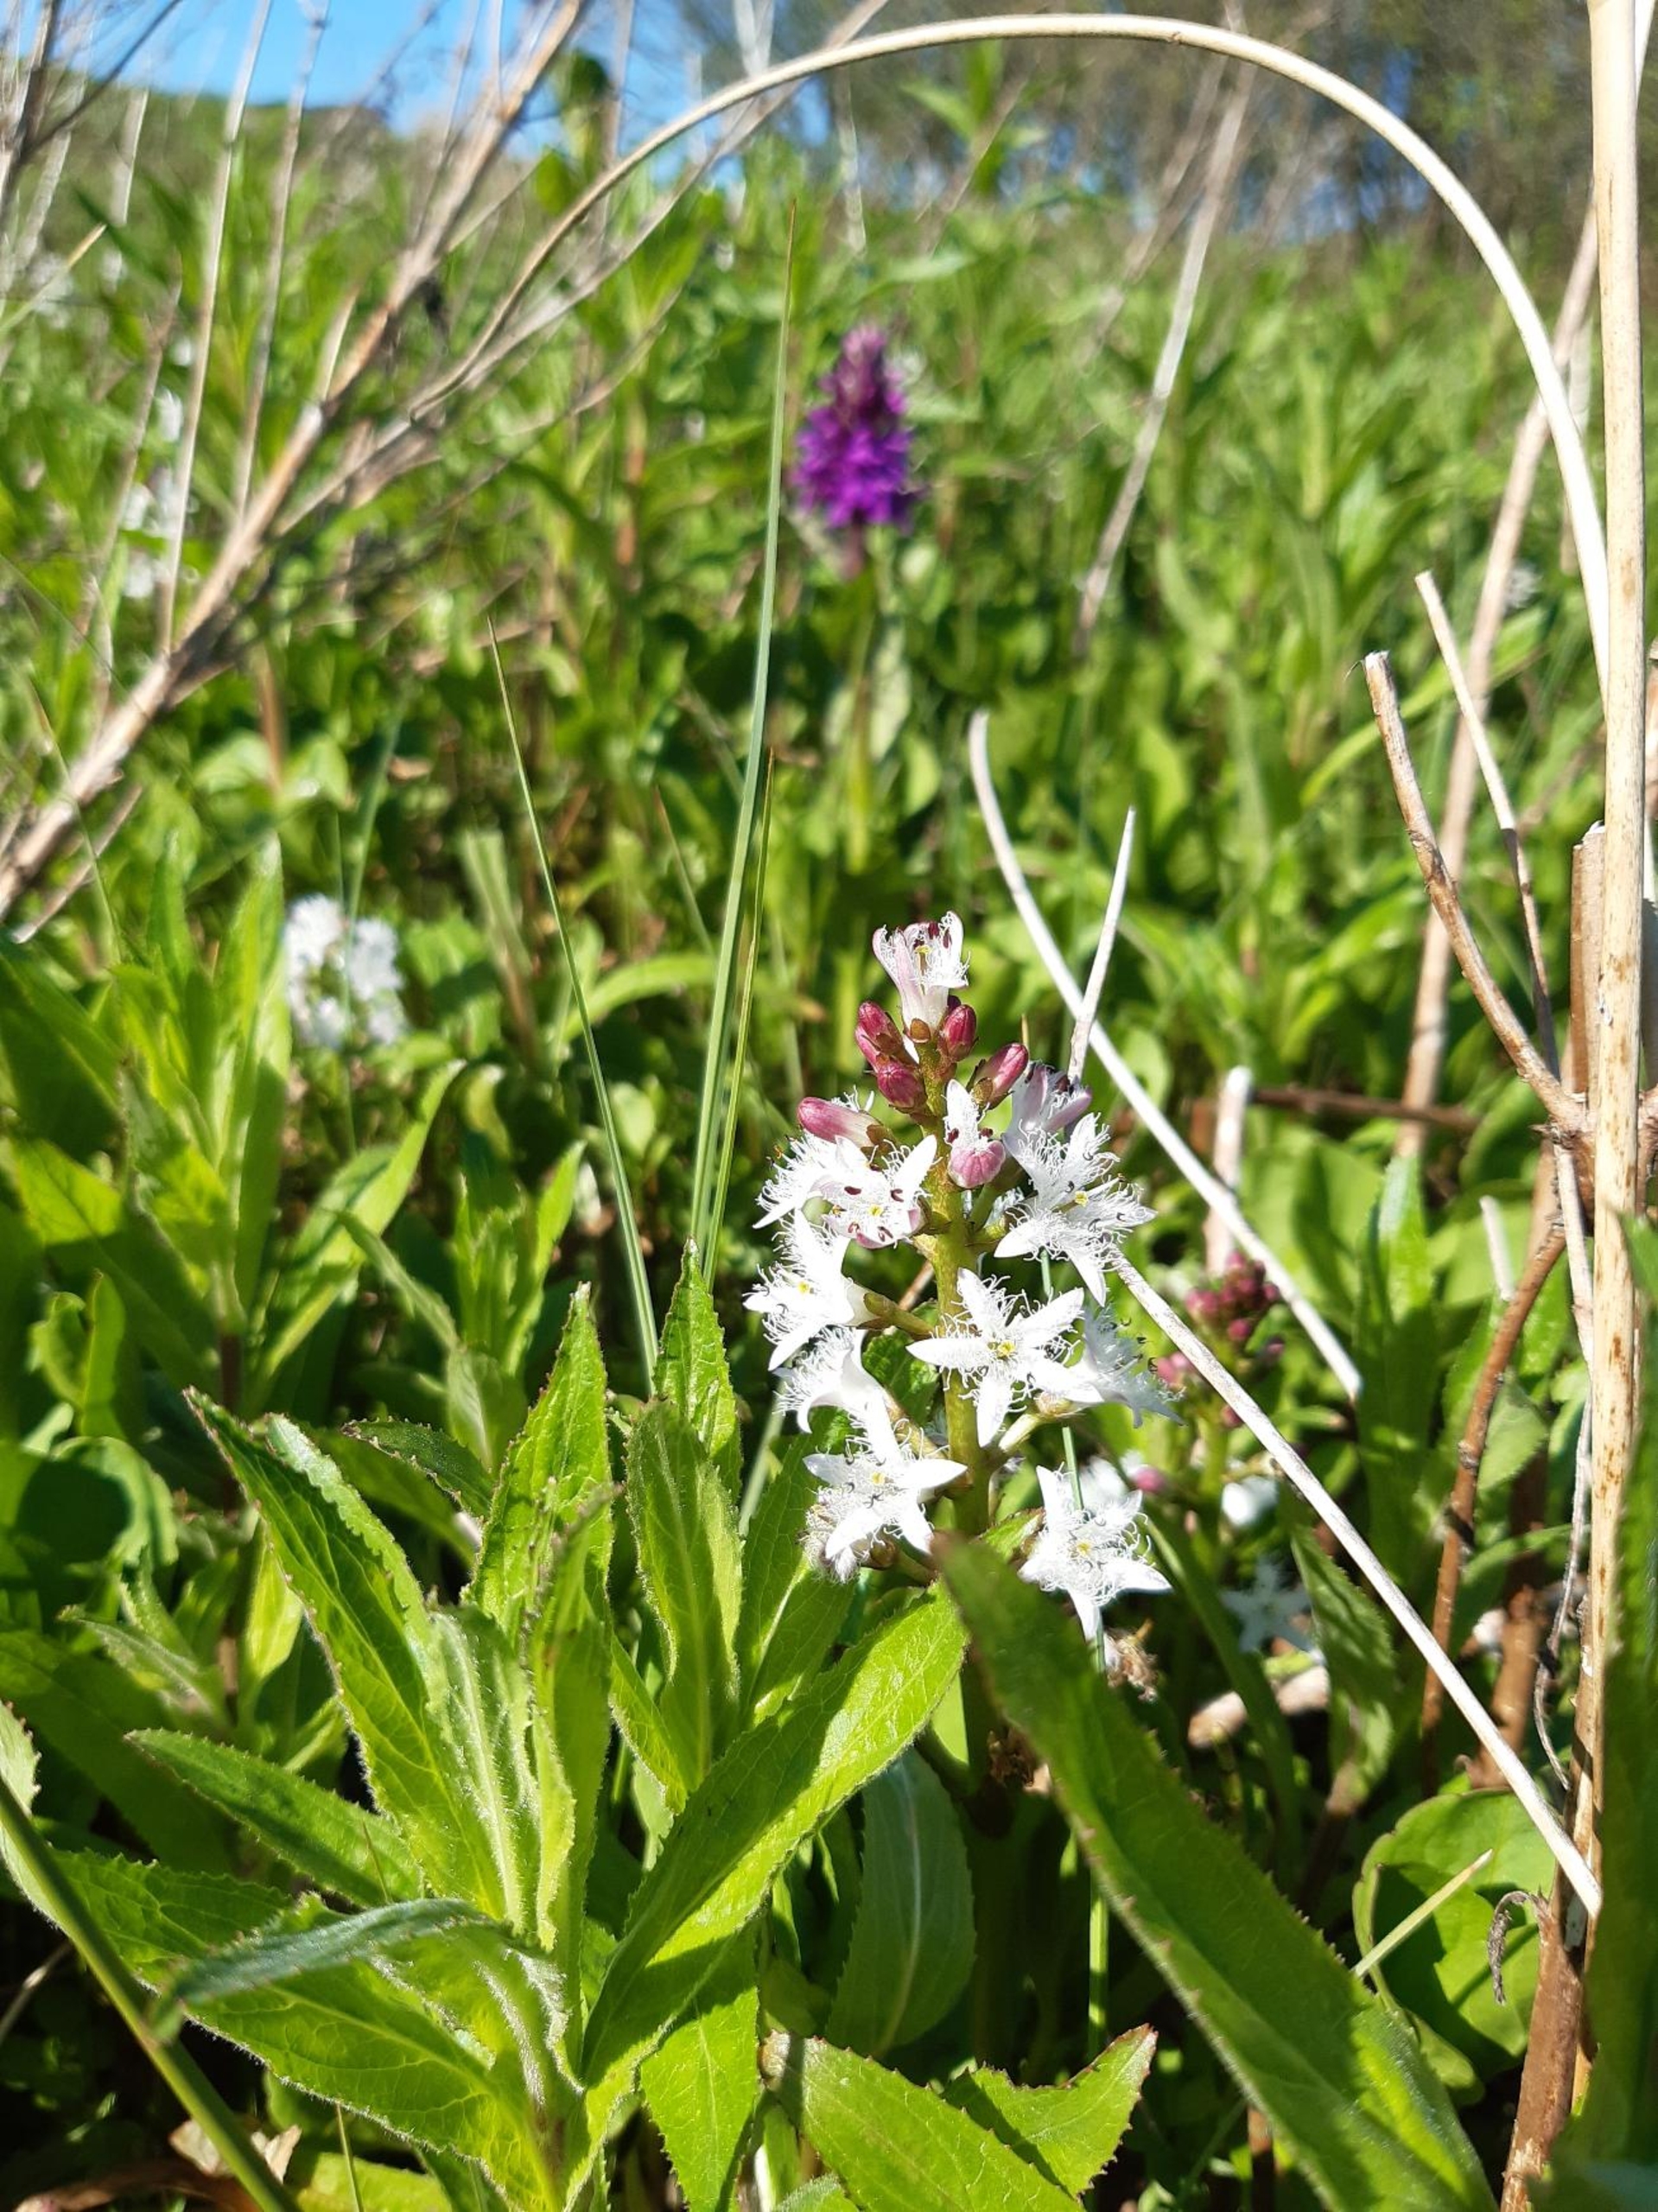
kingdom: Plantae
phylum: Tracheophyta
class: Magnoliopsida
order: Asterales
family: Menyanthaceae
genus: Menyanthes
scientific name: Menyanthes trifoliata
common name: Bukkeblad
